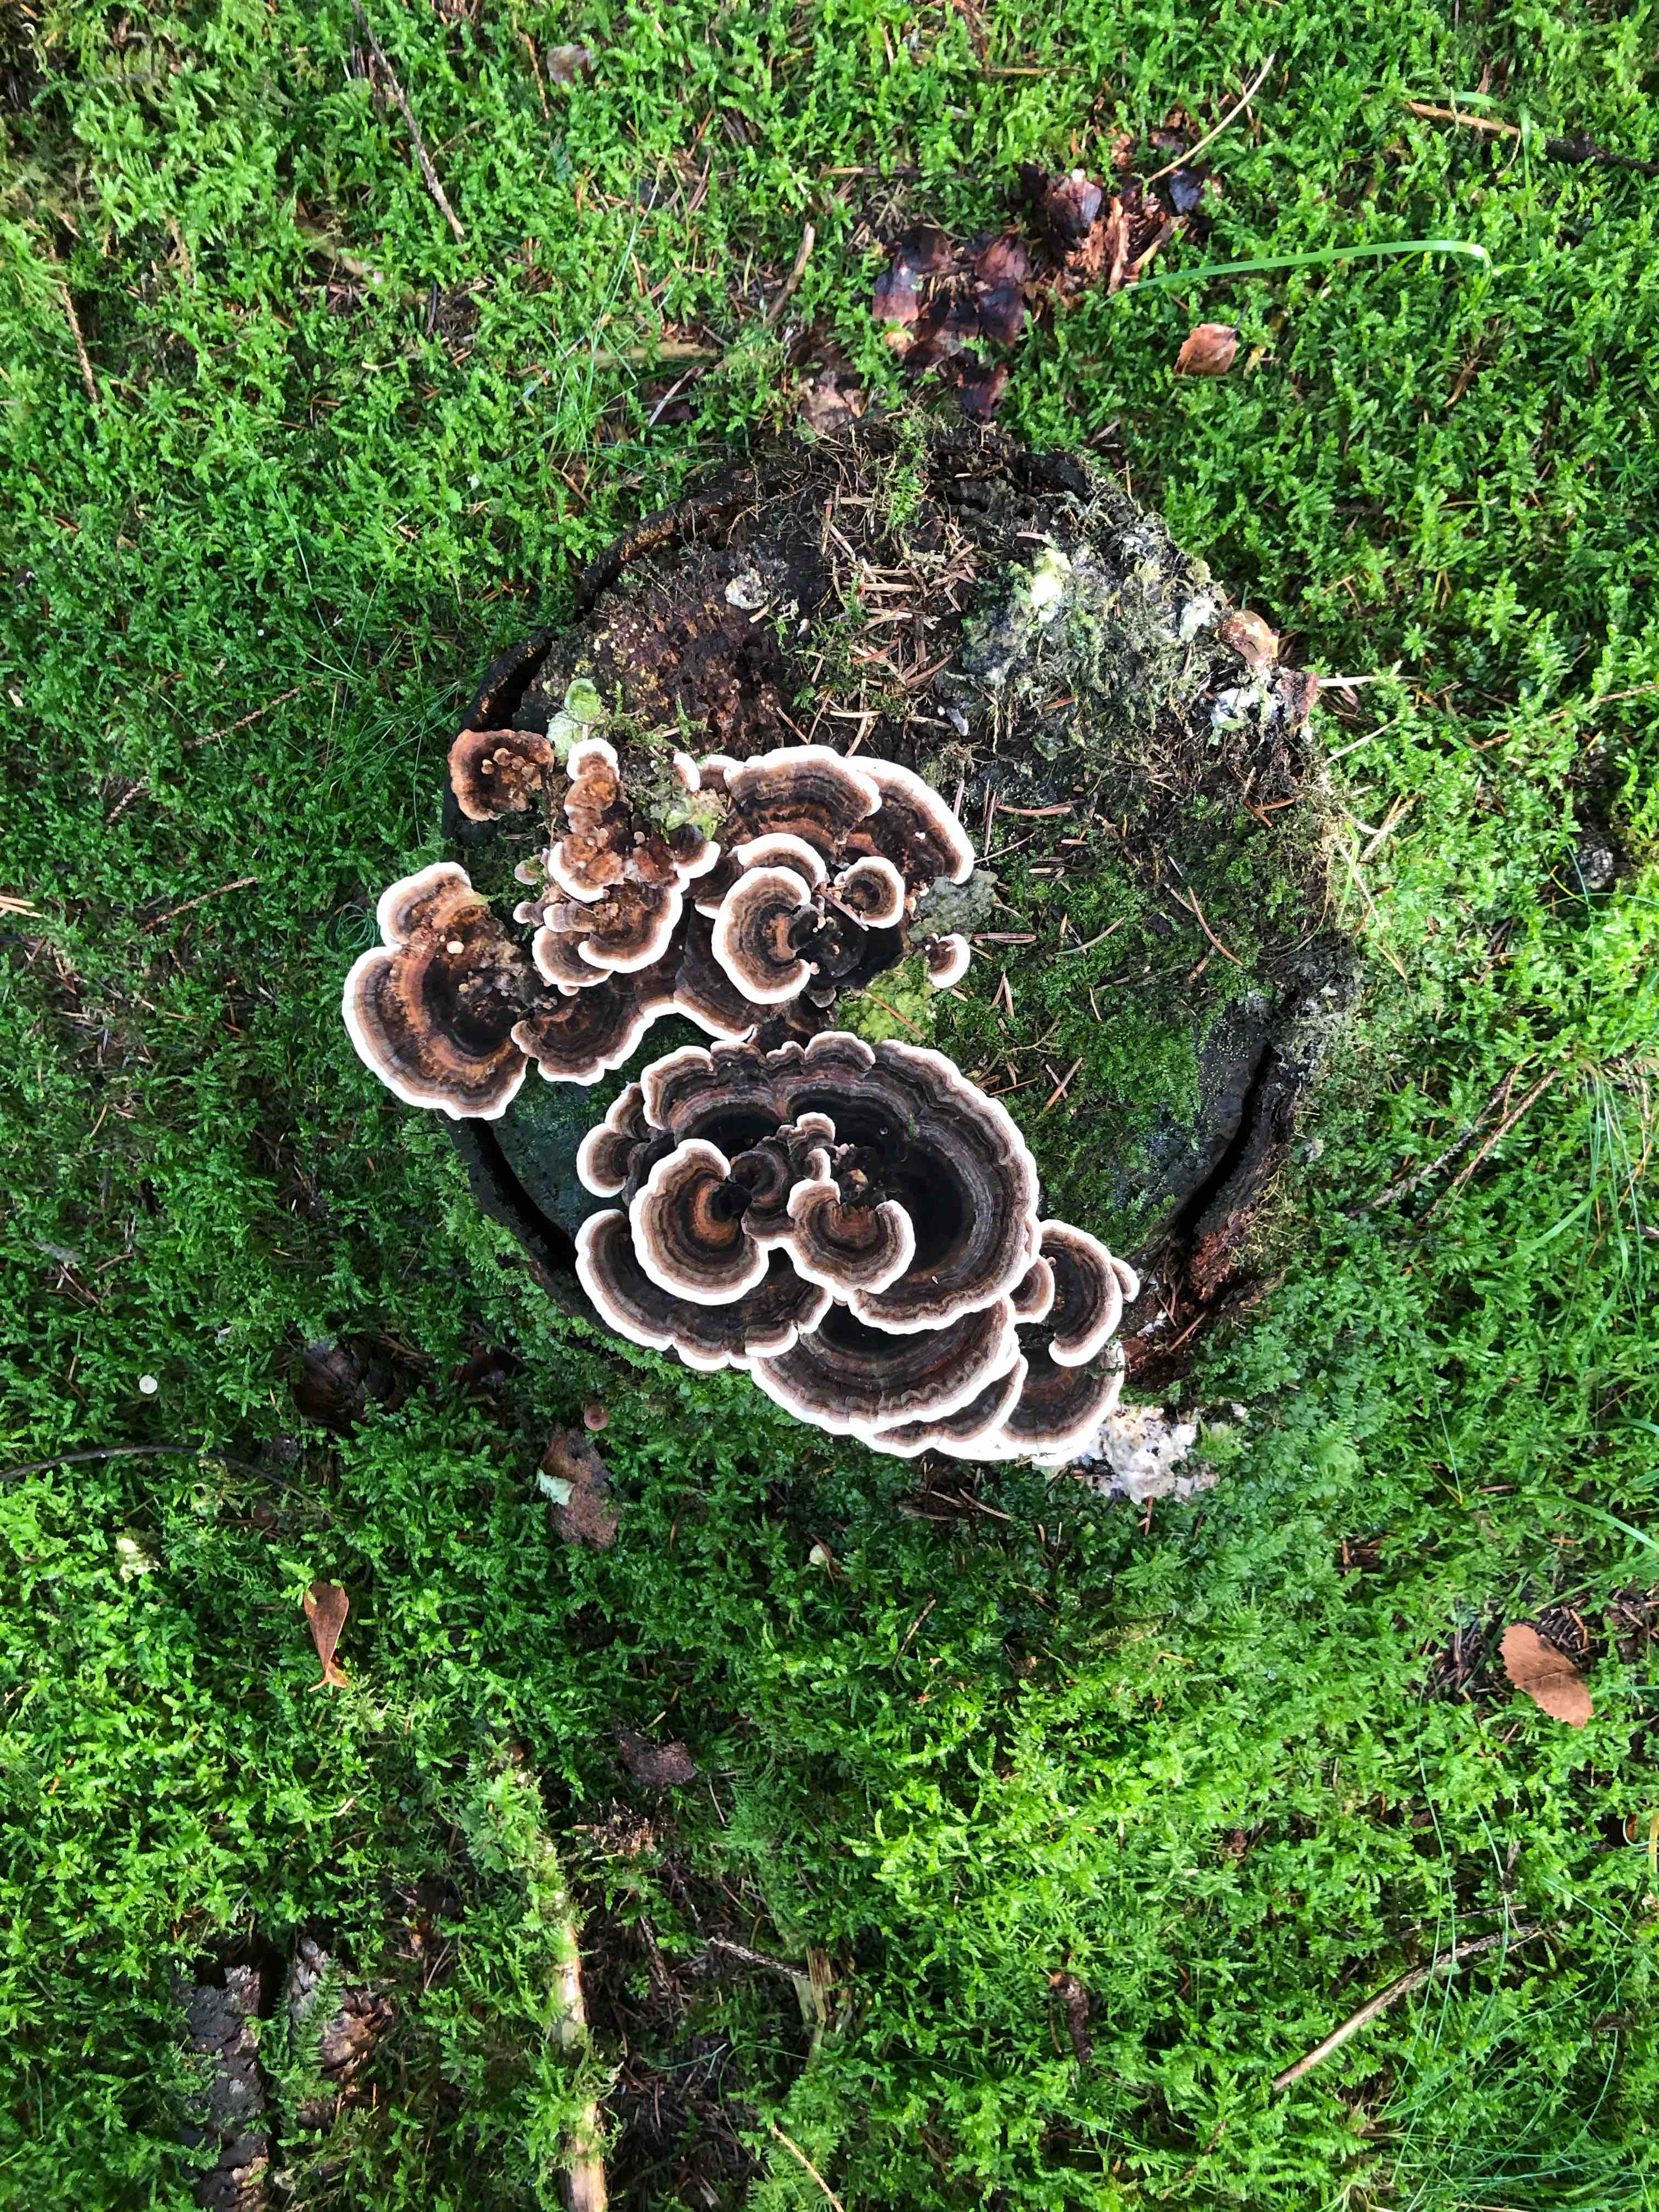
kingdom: Fungi
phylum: Basidiomycota
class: Agaricomycetes
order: Polyporales
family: Polyporaceae
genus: Trametes
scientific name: Trametes versicolor
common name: broget læderporesvamp
